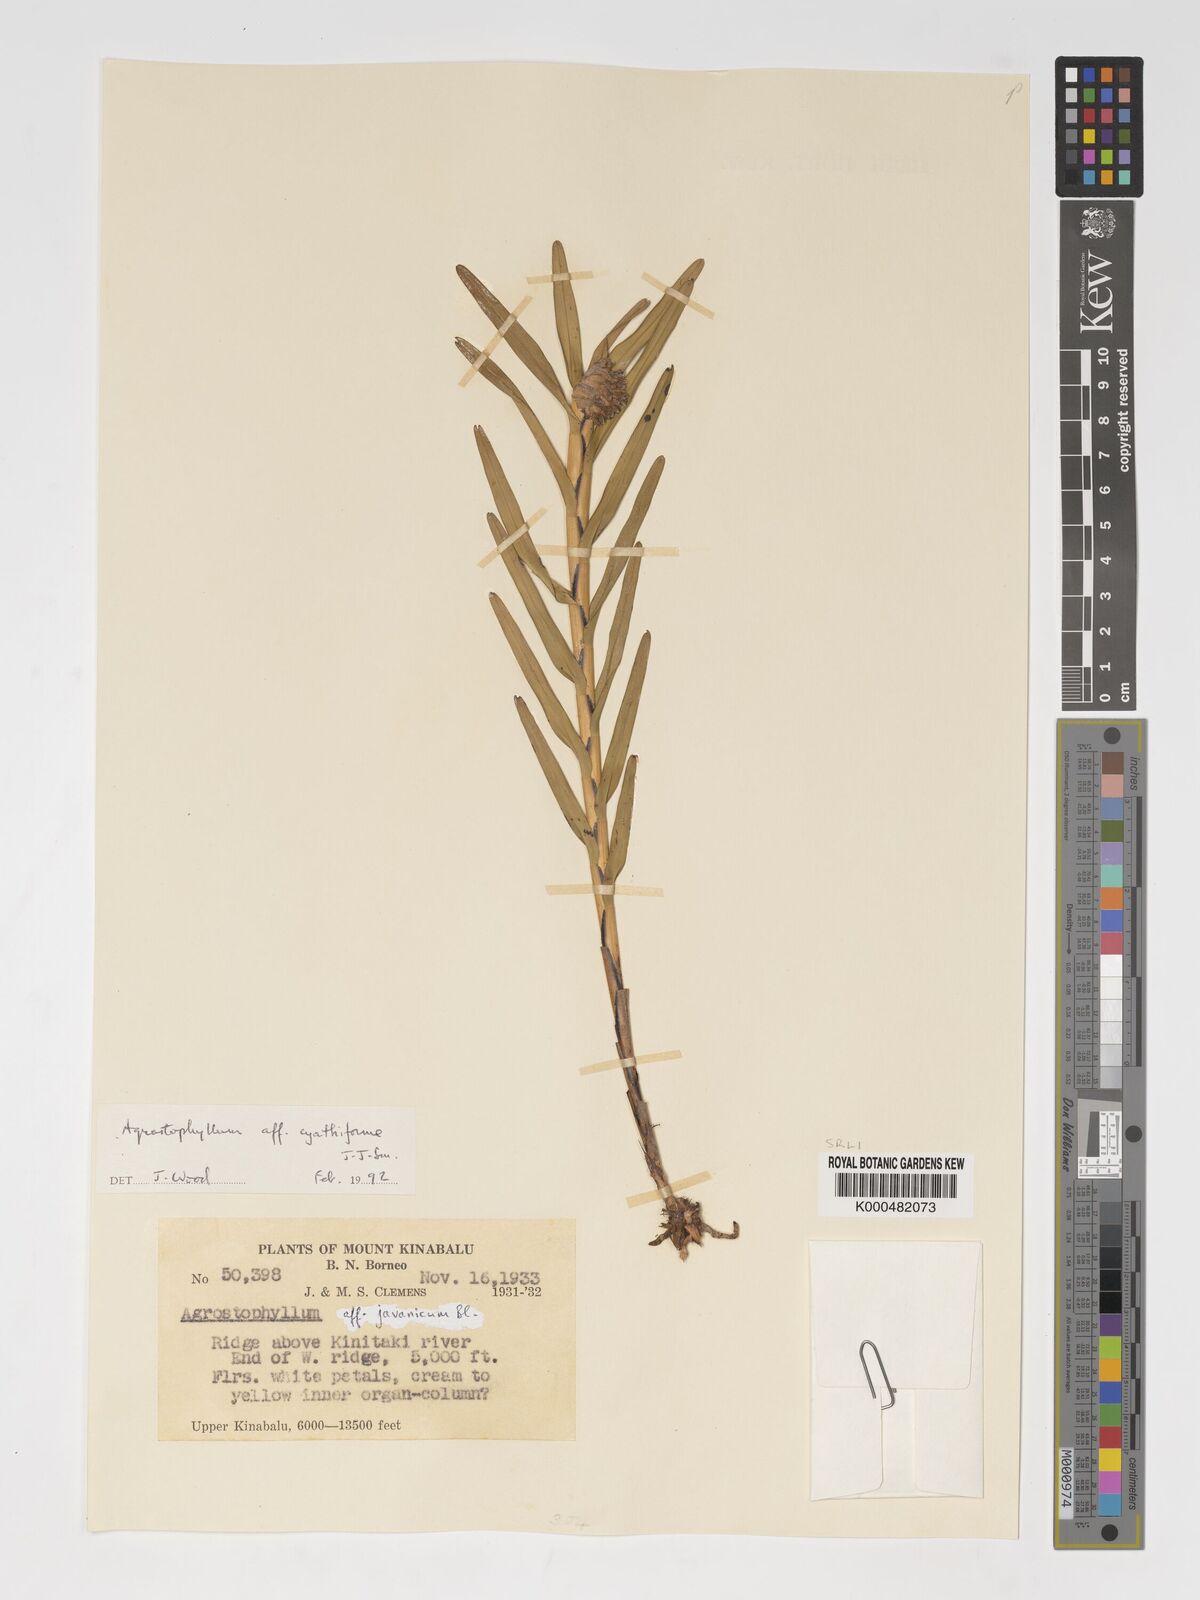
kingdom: Plantae
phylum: Tracheophyta
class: Liliopsida
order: Asparagales
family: Orchidaceae
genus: Agrostophyllum
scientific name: Agrostophyllum cyathiforme
